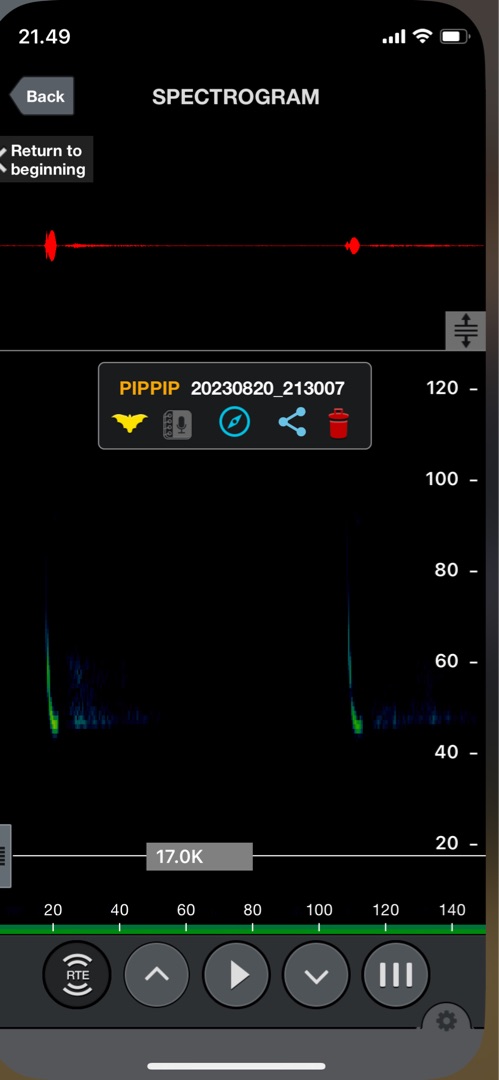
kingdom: Animalia
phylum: Chordata
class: Mammalia
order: Chiroptera
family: Vespertilionidae
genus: Pipistrellus
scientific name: Pipistrellus pygmaeus
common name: Dværgflagermus
